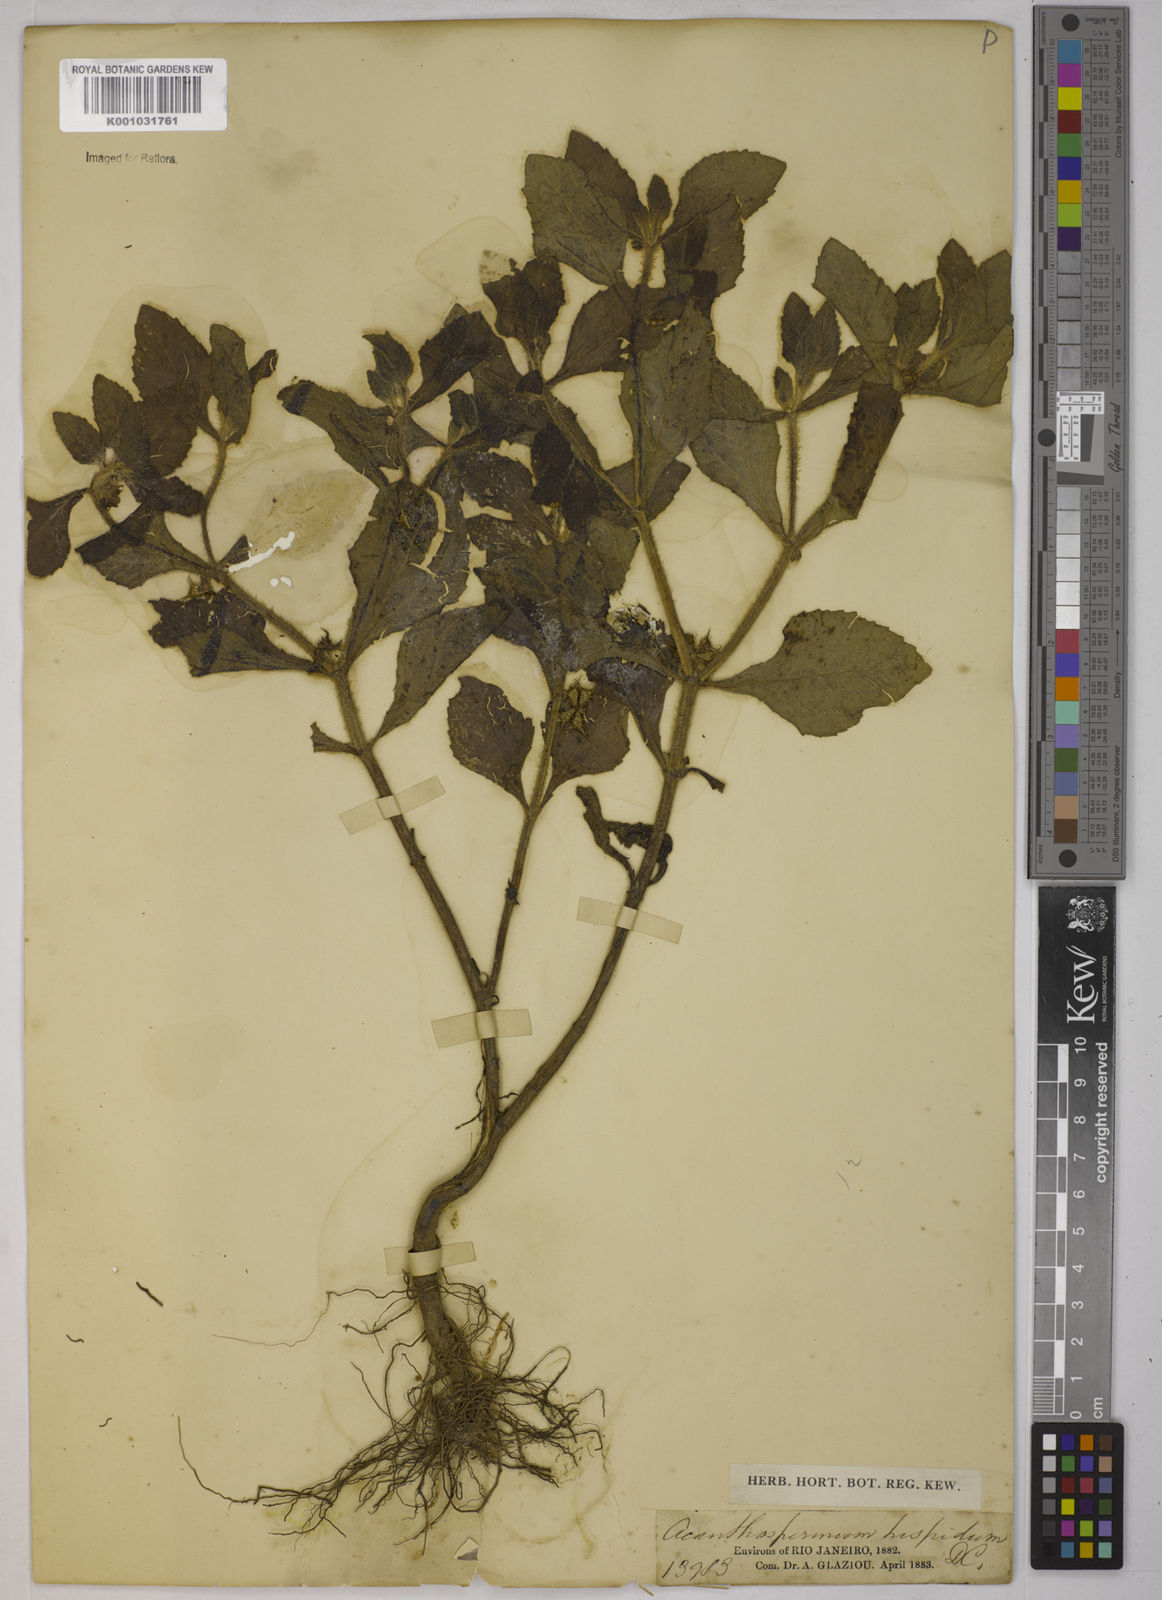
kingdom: Plantae
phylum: Tracheophyta
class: Magnoliopsida
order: Asterales
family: Asteraceae
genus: Acanthospermum
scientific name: Acanthospermum hispidum
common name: Hispid starbur
